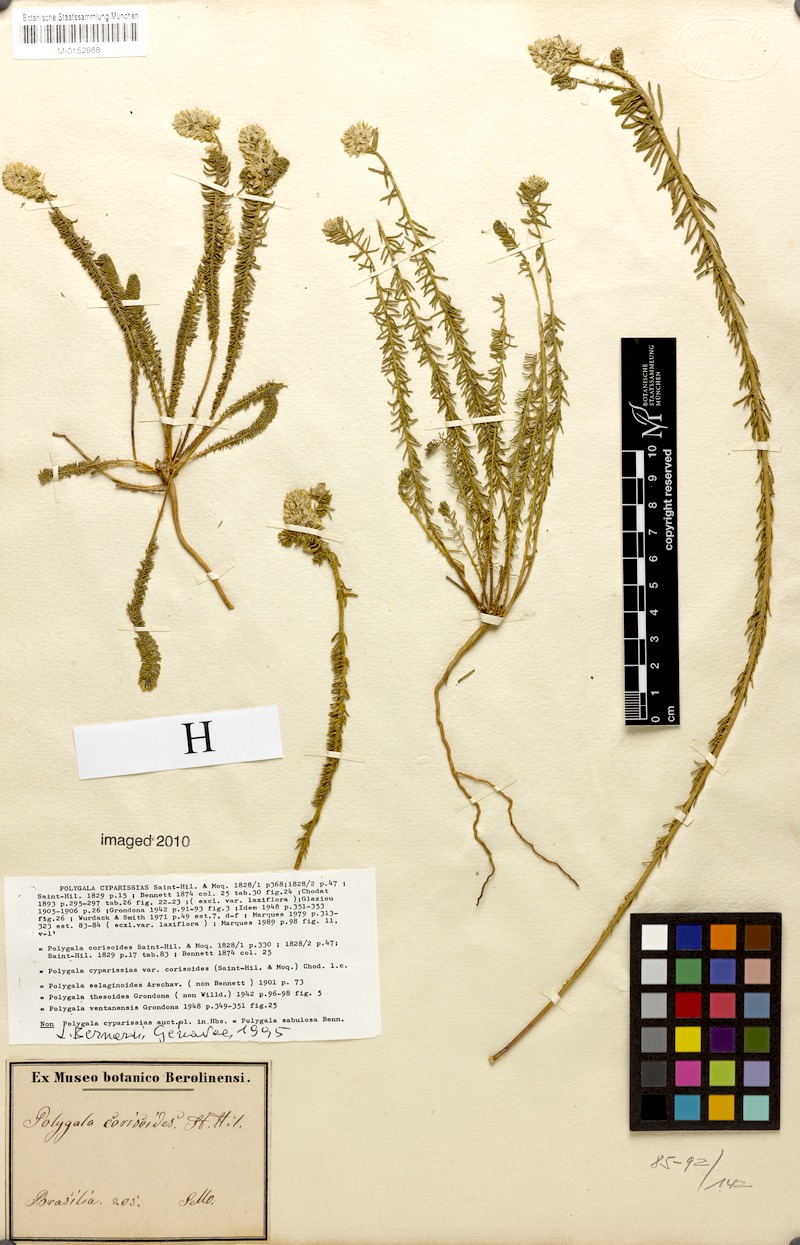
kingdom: Plantae
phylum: Tracheophyta
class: Magnoliopsida
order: Fabales
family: Polygalaceae
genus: Polygala
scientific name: Polygala cyparissias
